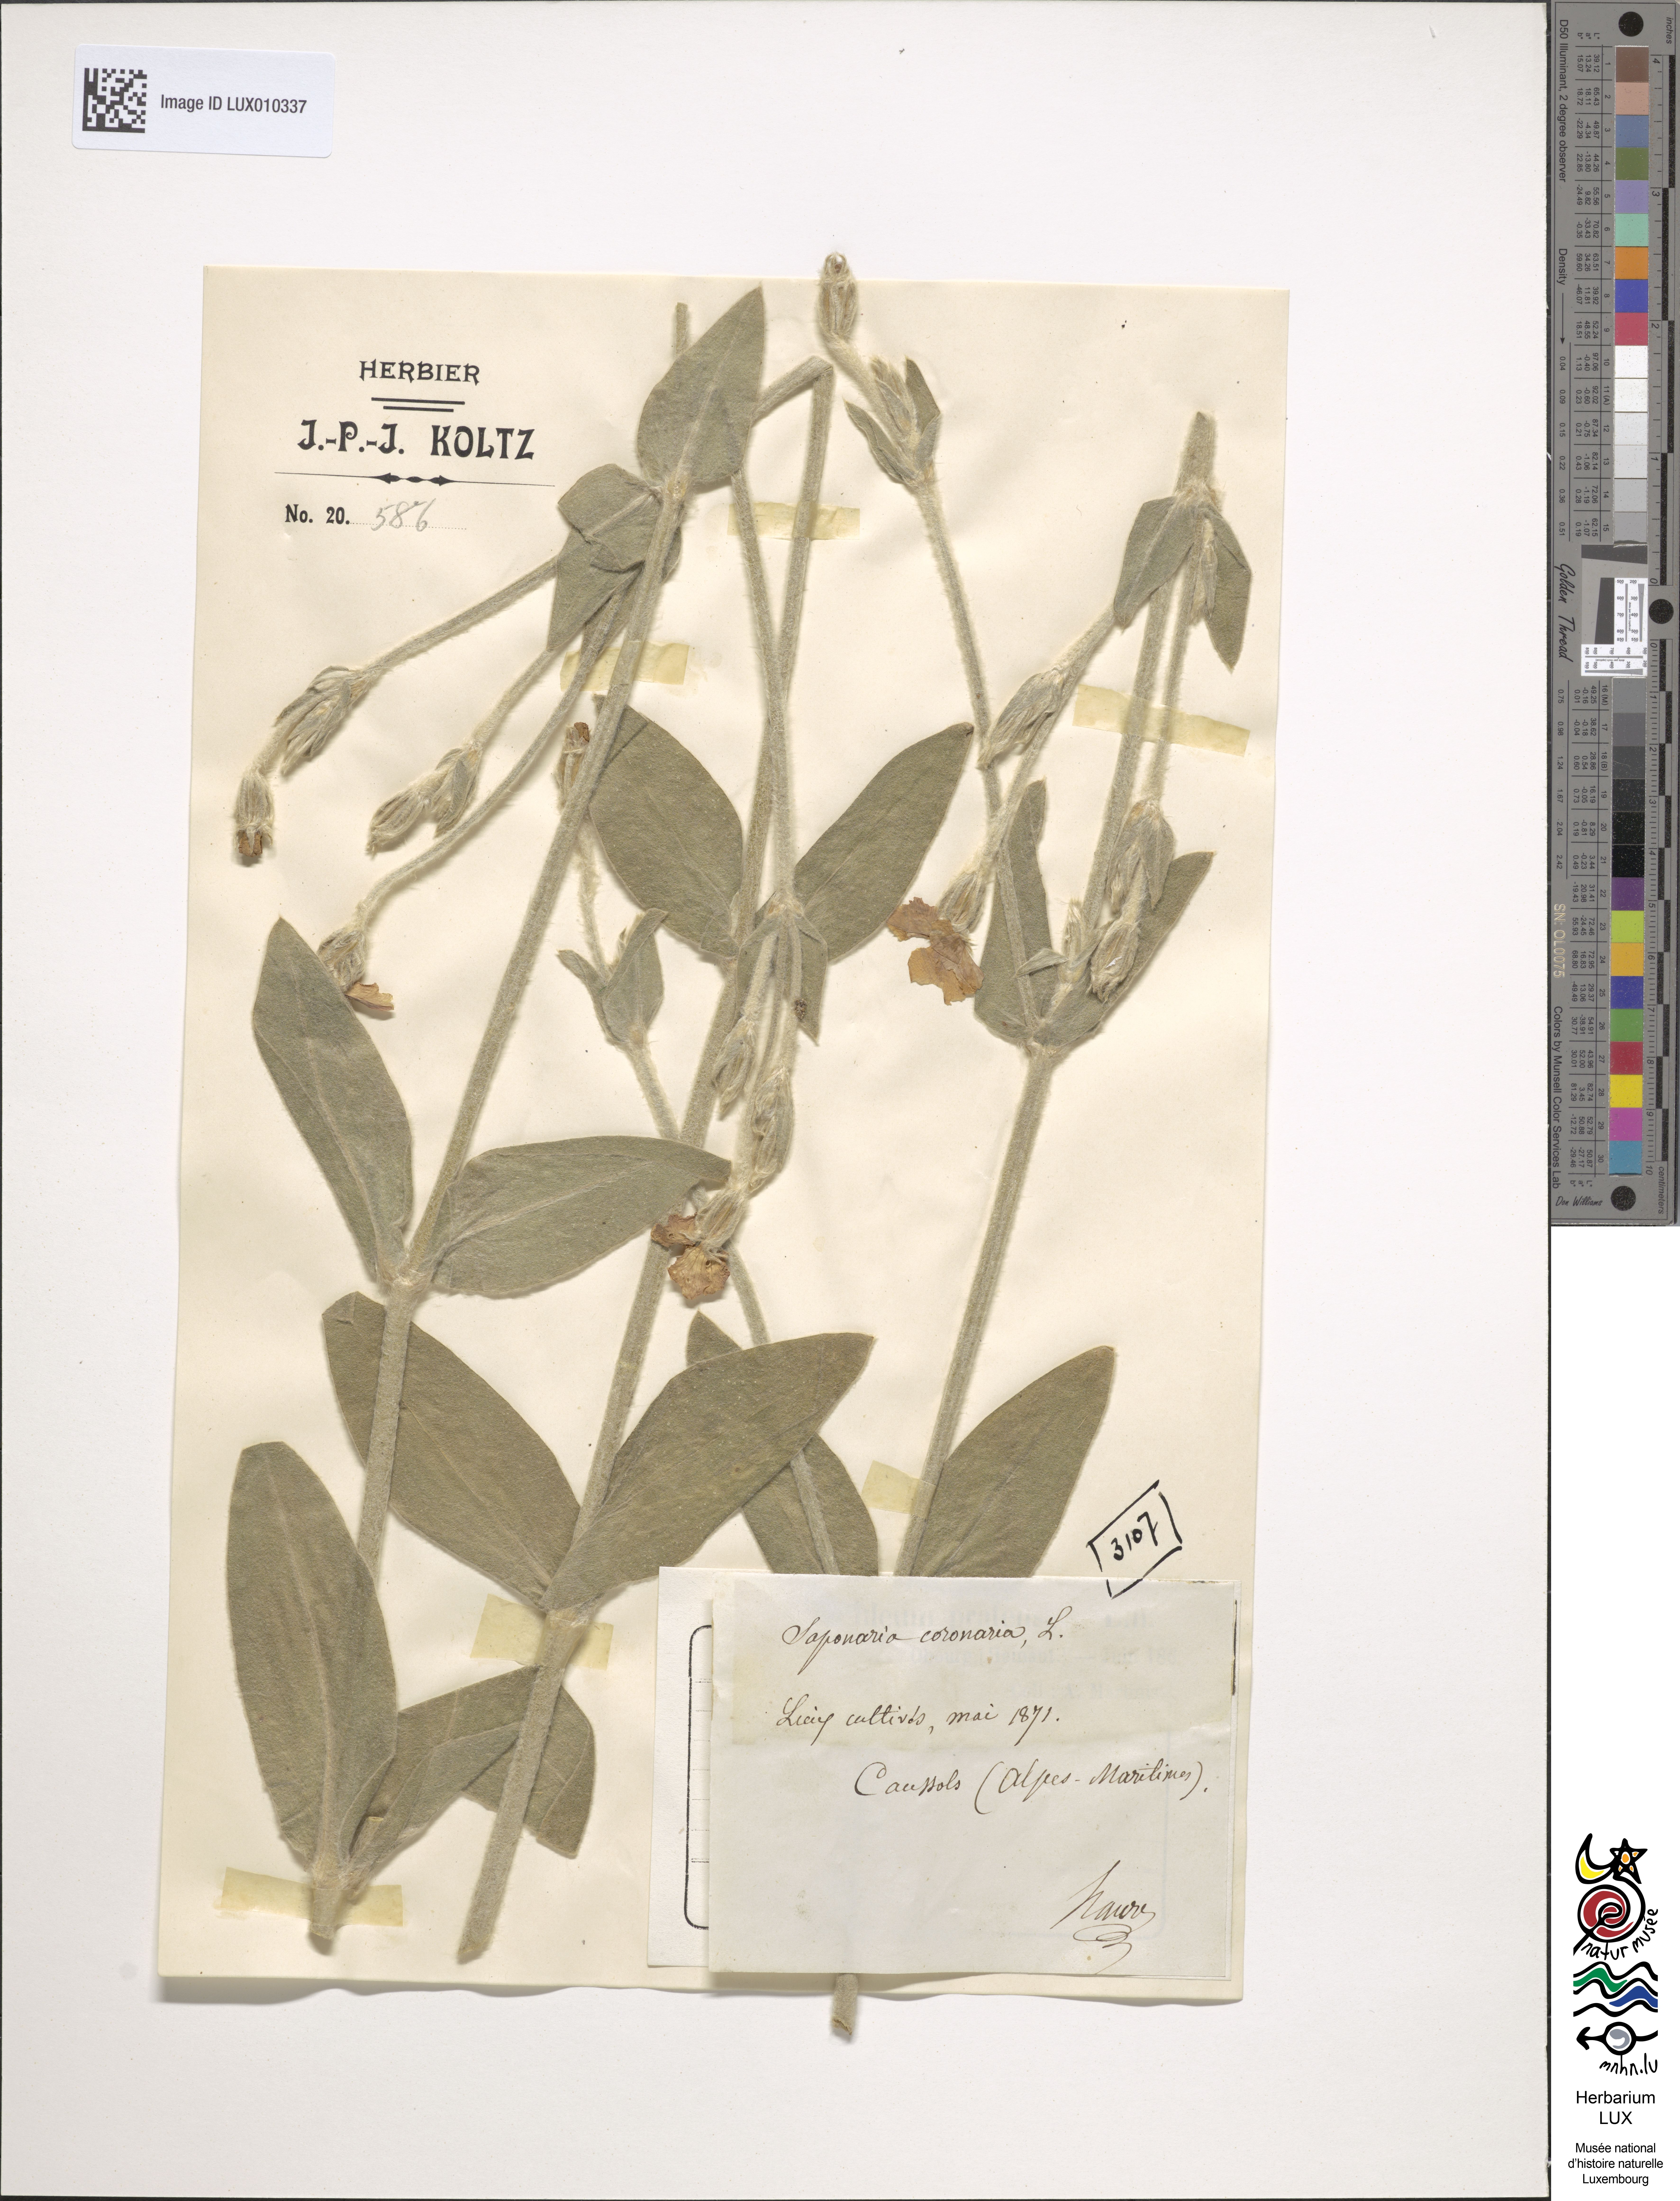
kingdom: Plantae
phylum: Tracheophyta
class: Magnoliopsida
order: Caryophyllales
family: Caryophyllaceae
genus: Silene
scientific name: Silene coronaria
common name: Rose campion
